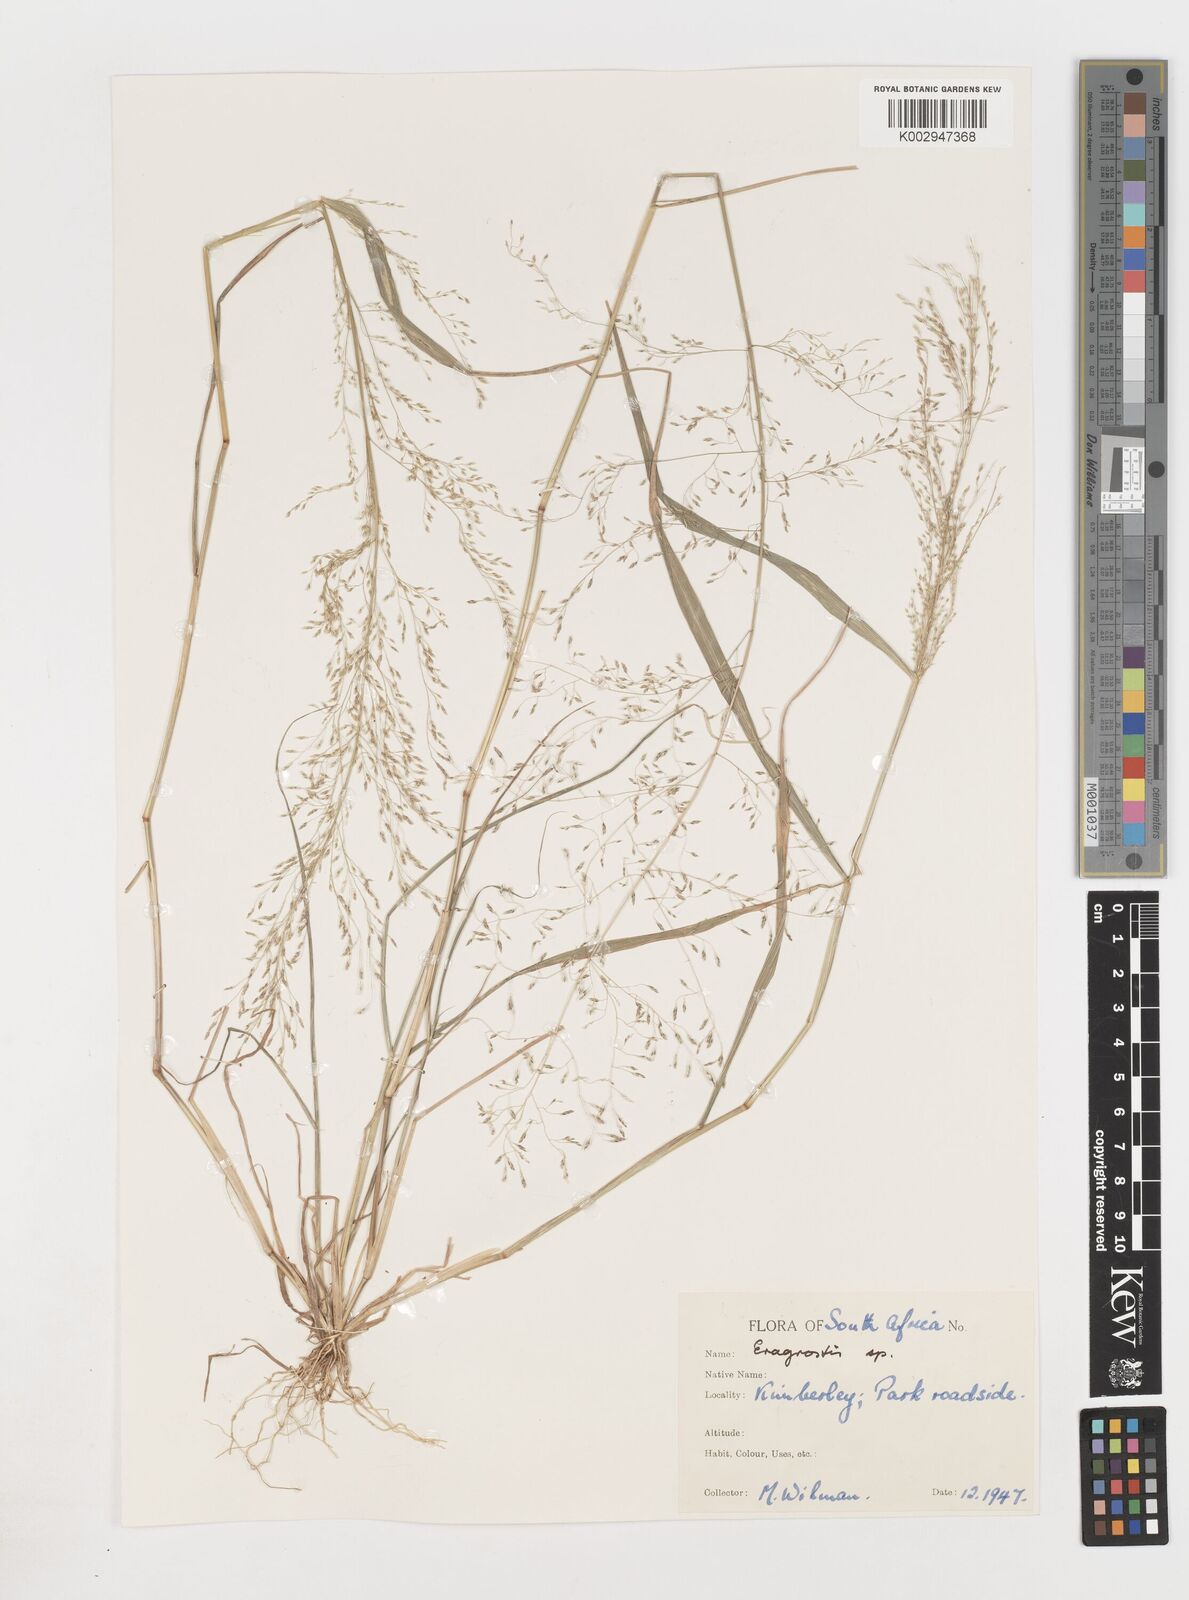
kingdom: Plantae
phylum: Tracheophyta
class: Liliopsida
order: Poales
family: Poaceae
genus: Eragrostis
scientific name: Eragrostis
